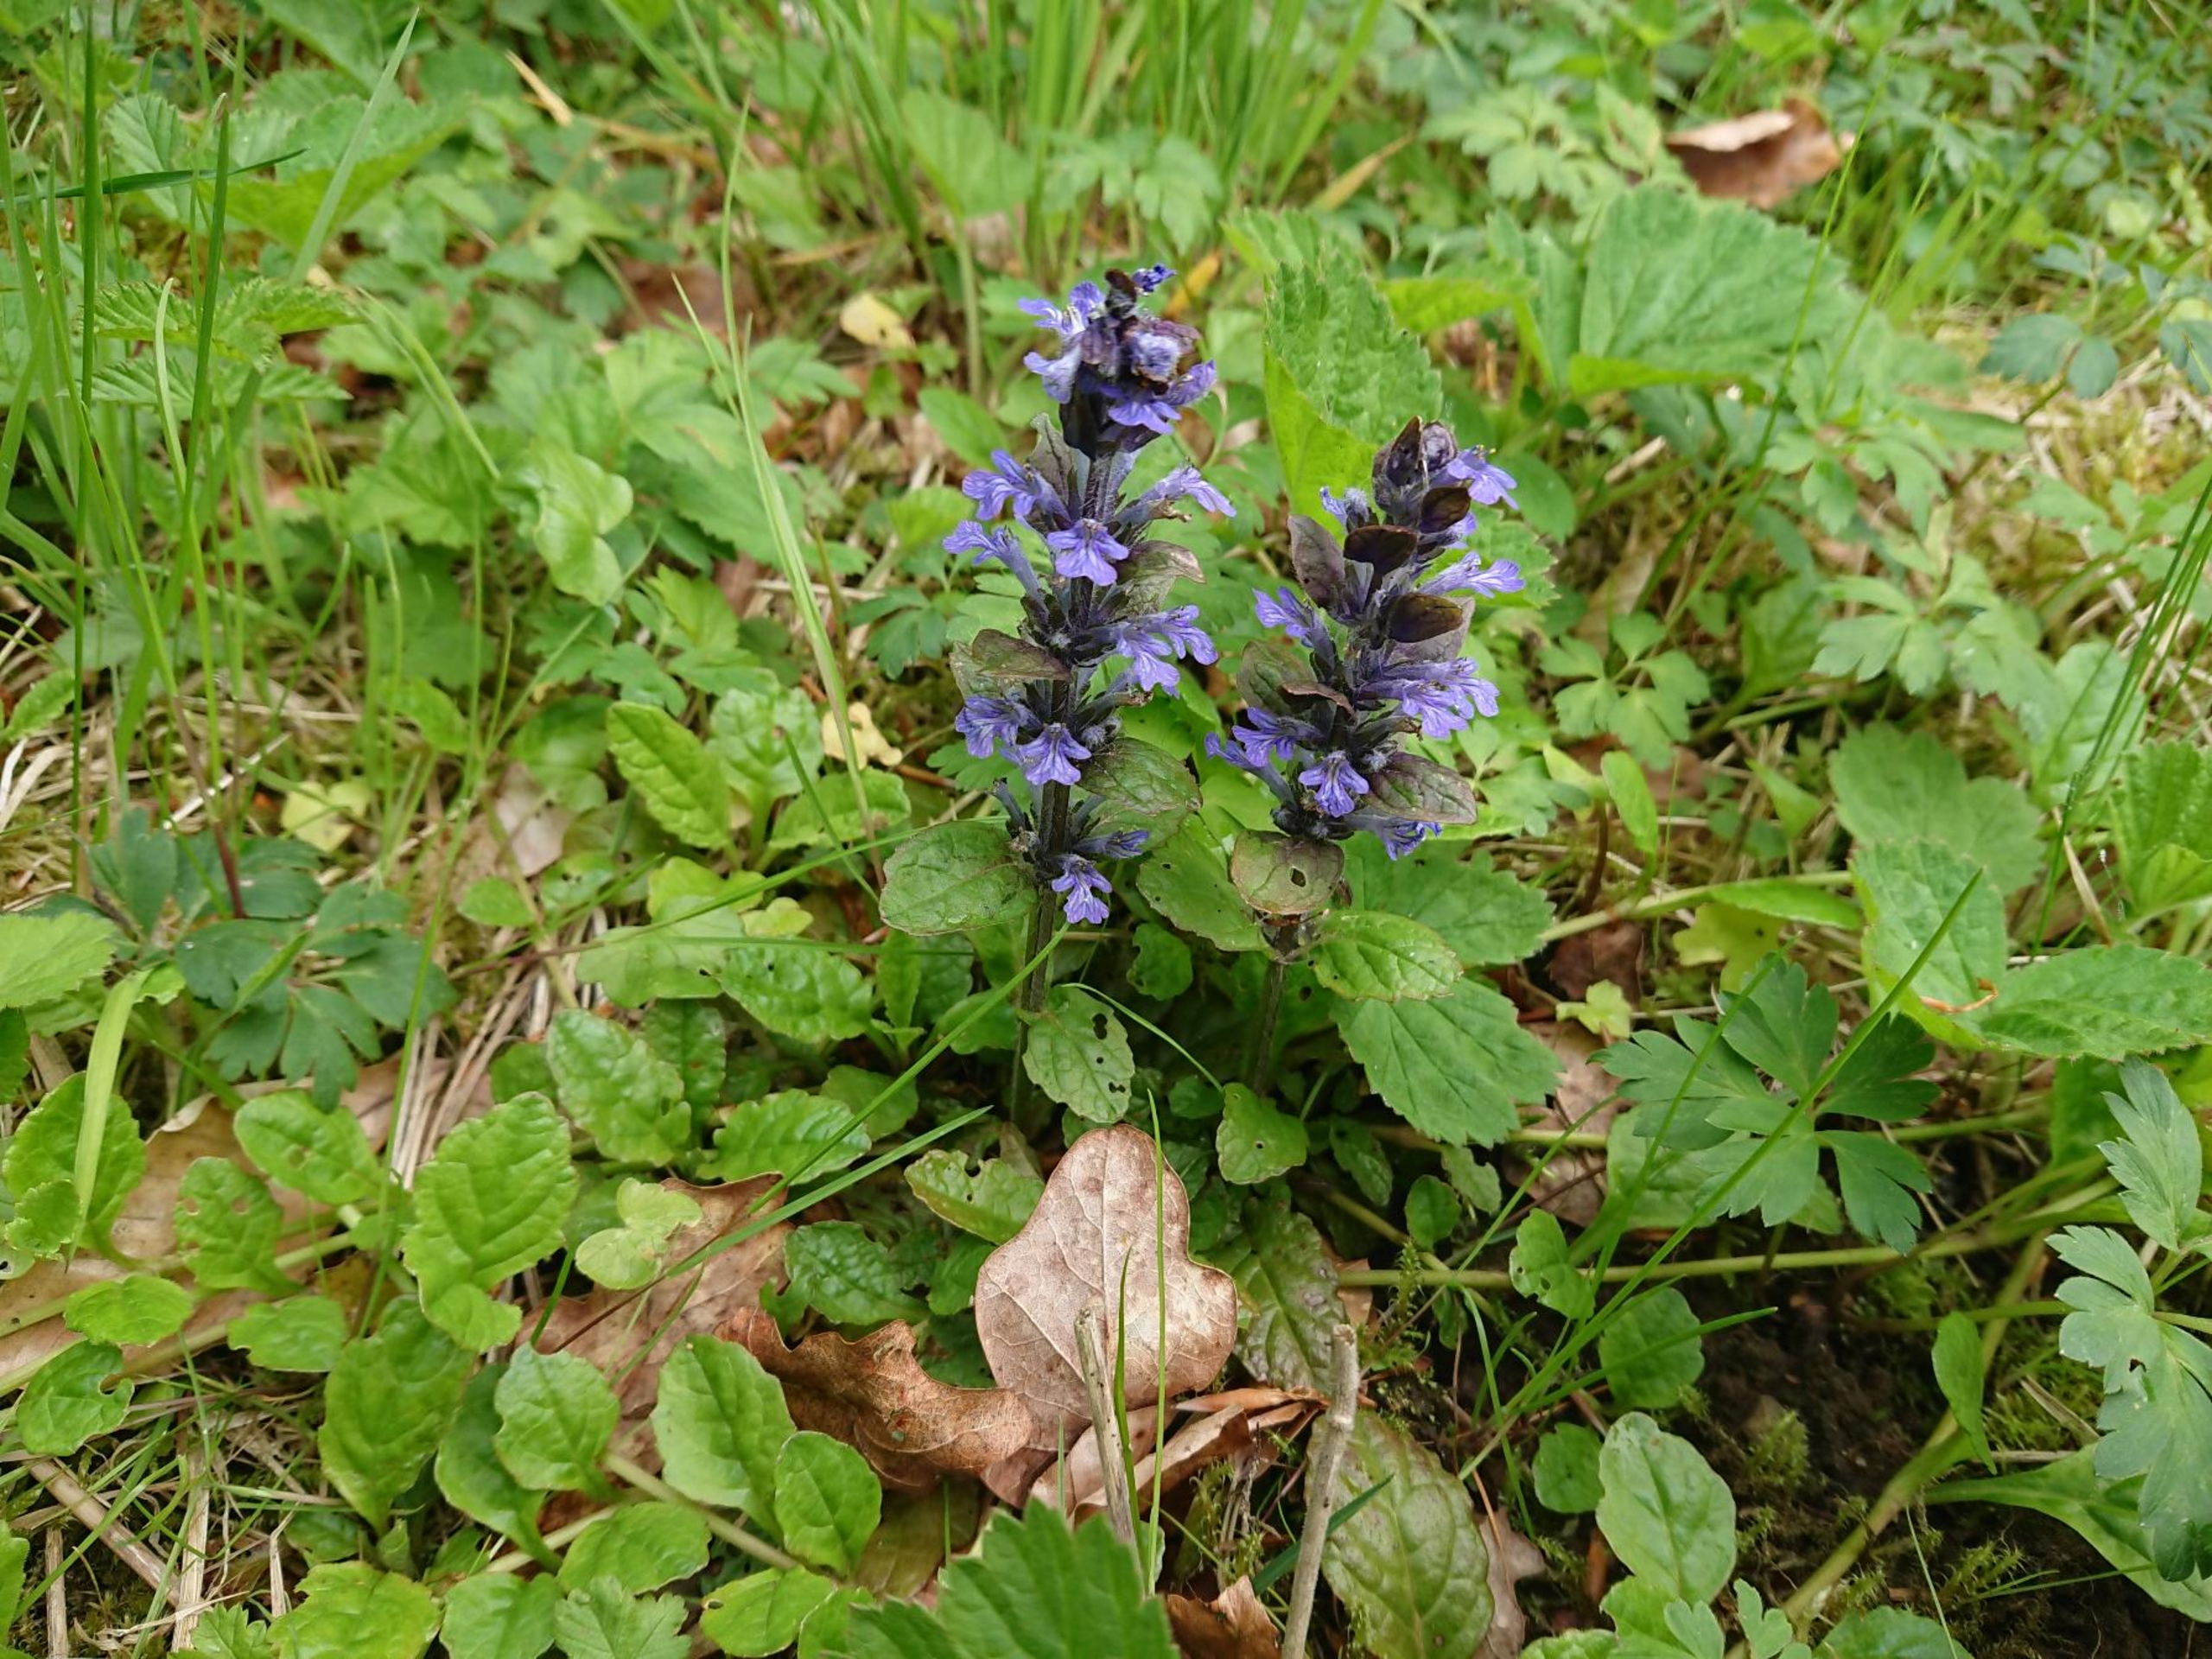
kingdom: Plantae
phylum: Tracheophyta
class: Magnoliopsida
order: Lamiales
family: Lamiaceae
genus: Ajuga
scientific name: Ajuga reptans
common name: Krybende læbeløs
